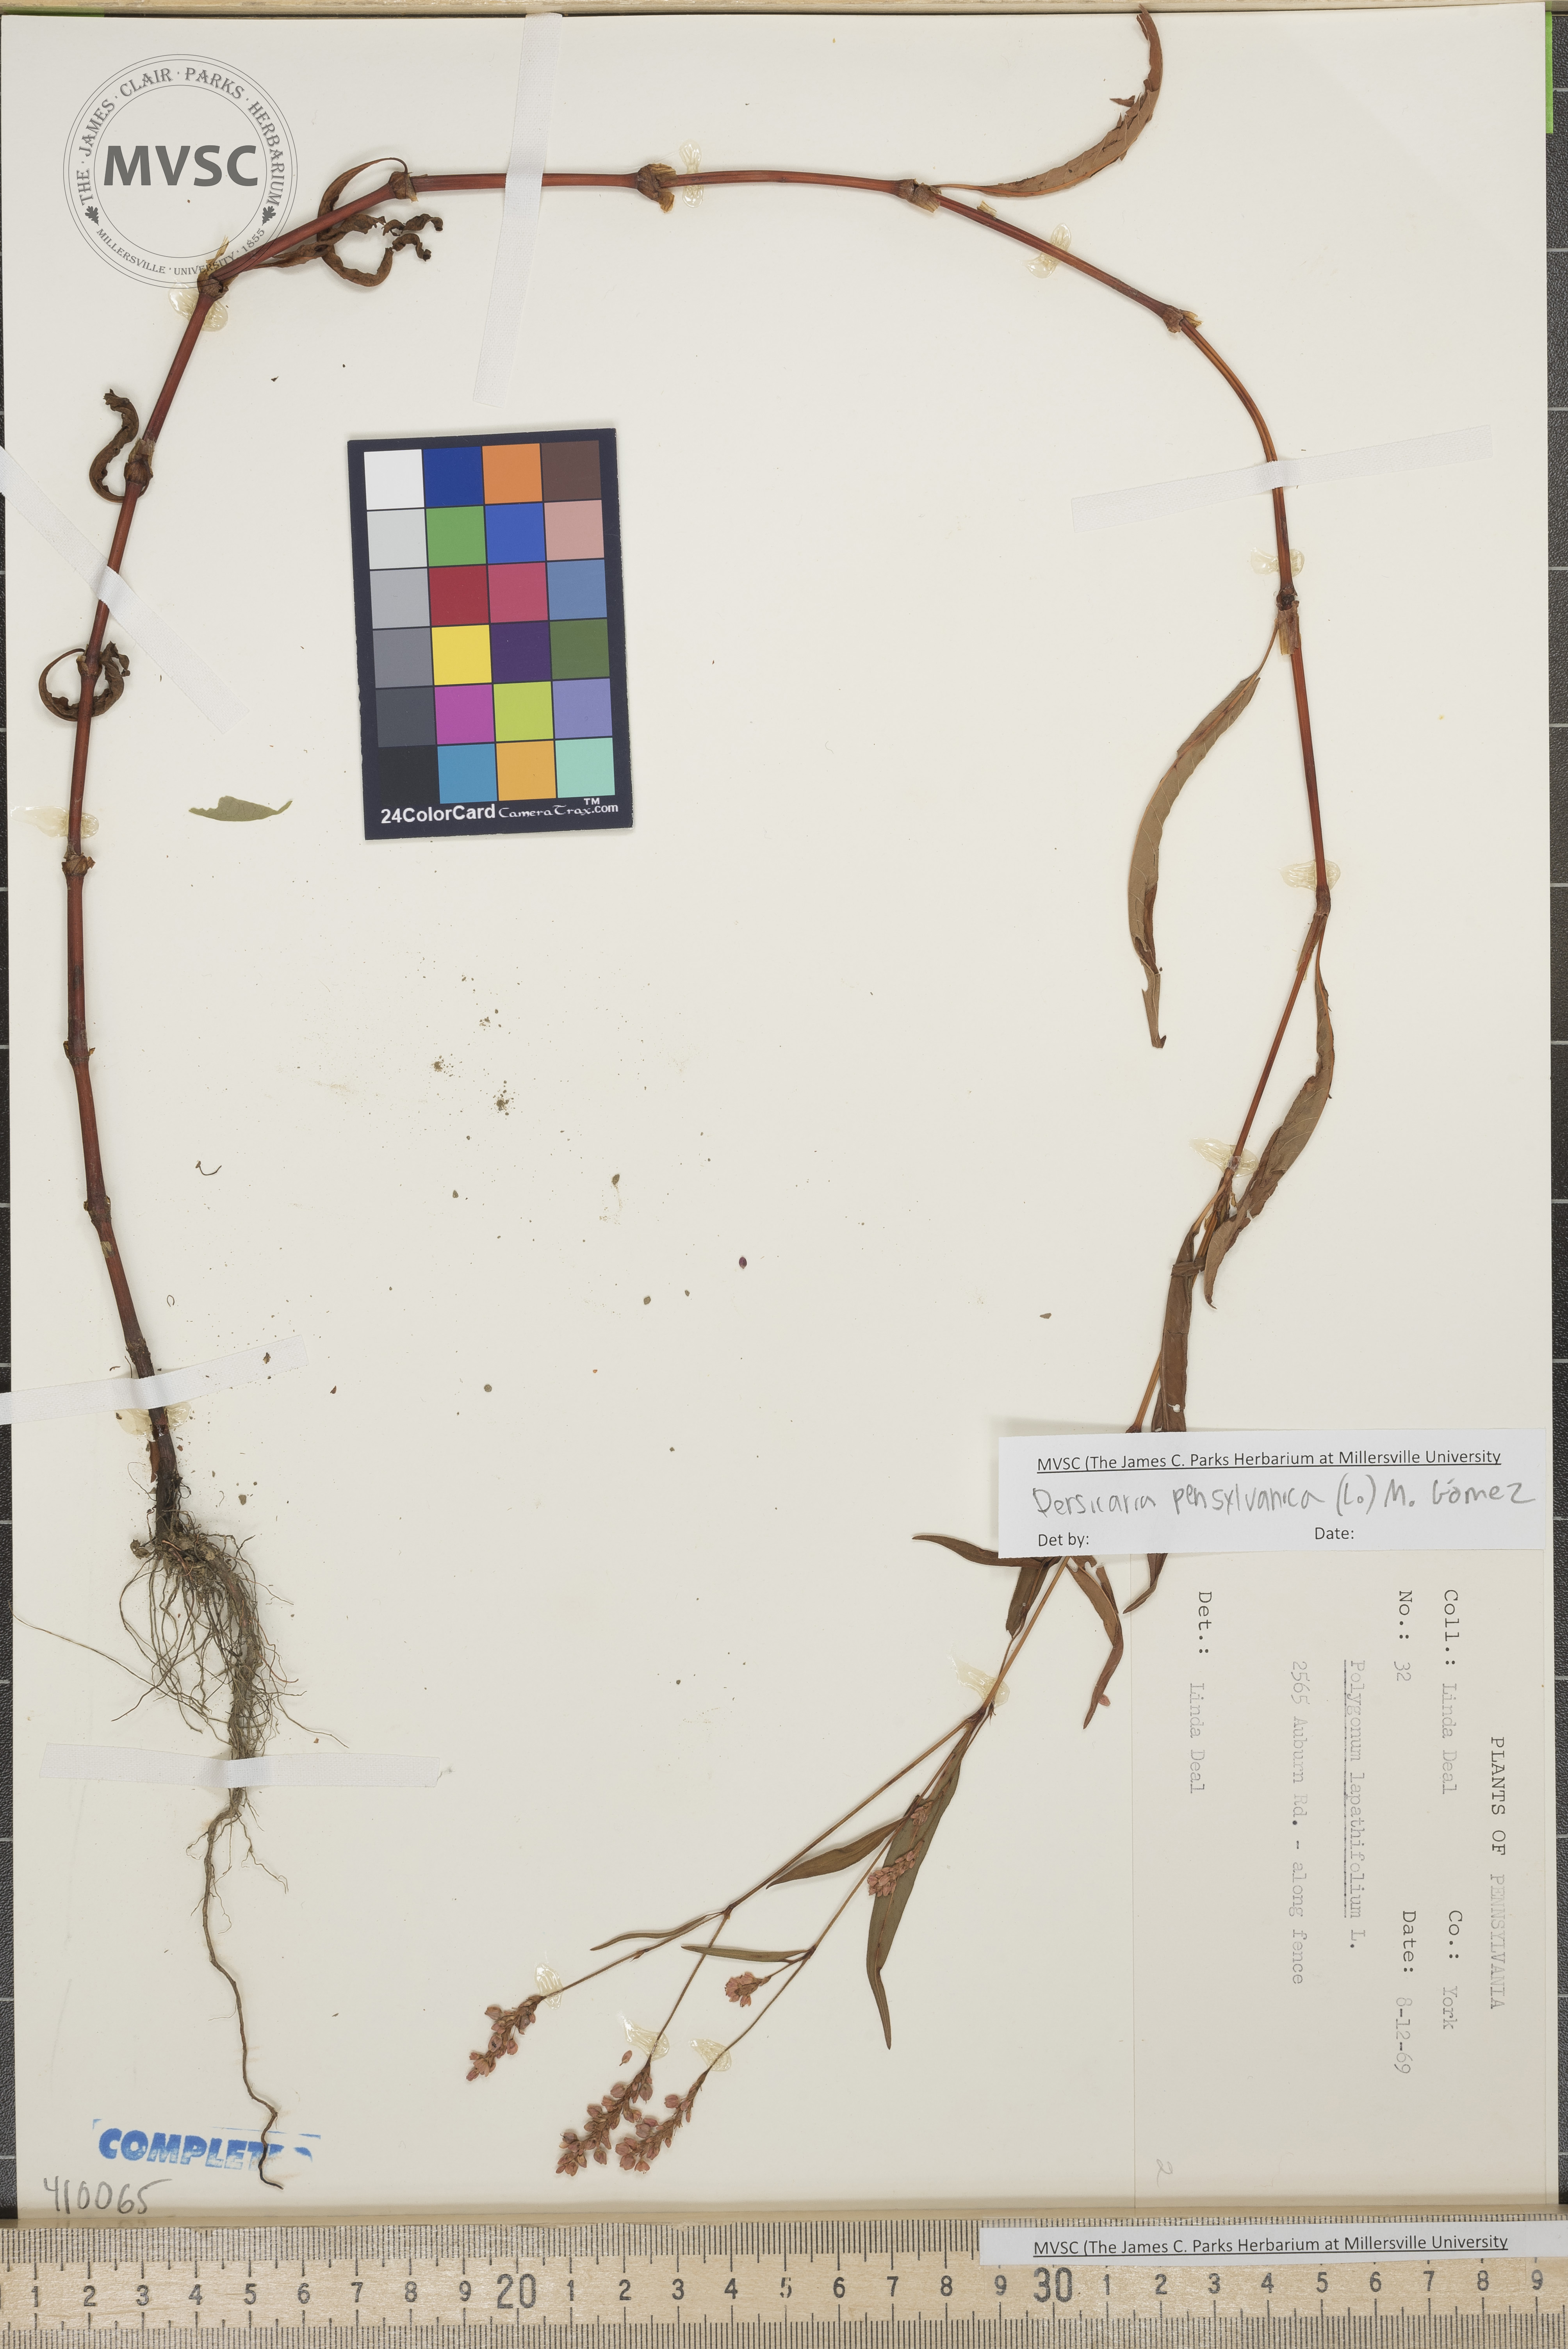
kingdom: Plantae
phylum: Tracheophyta
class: Magnoliopsida
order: Caryophyllales
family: Polygonaceae
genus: Persicaria
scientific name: Persicaria pensylvanica
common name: Pinkweed
